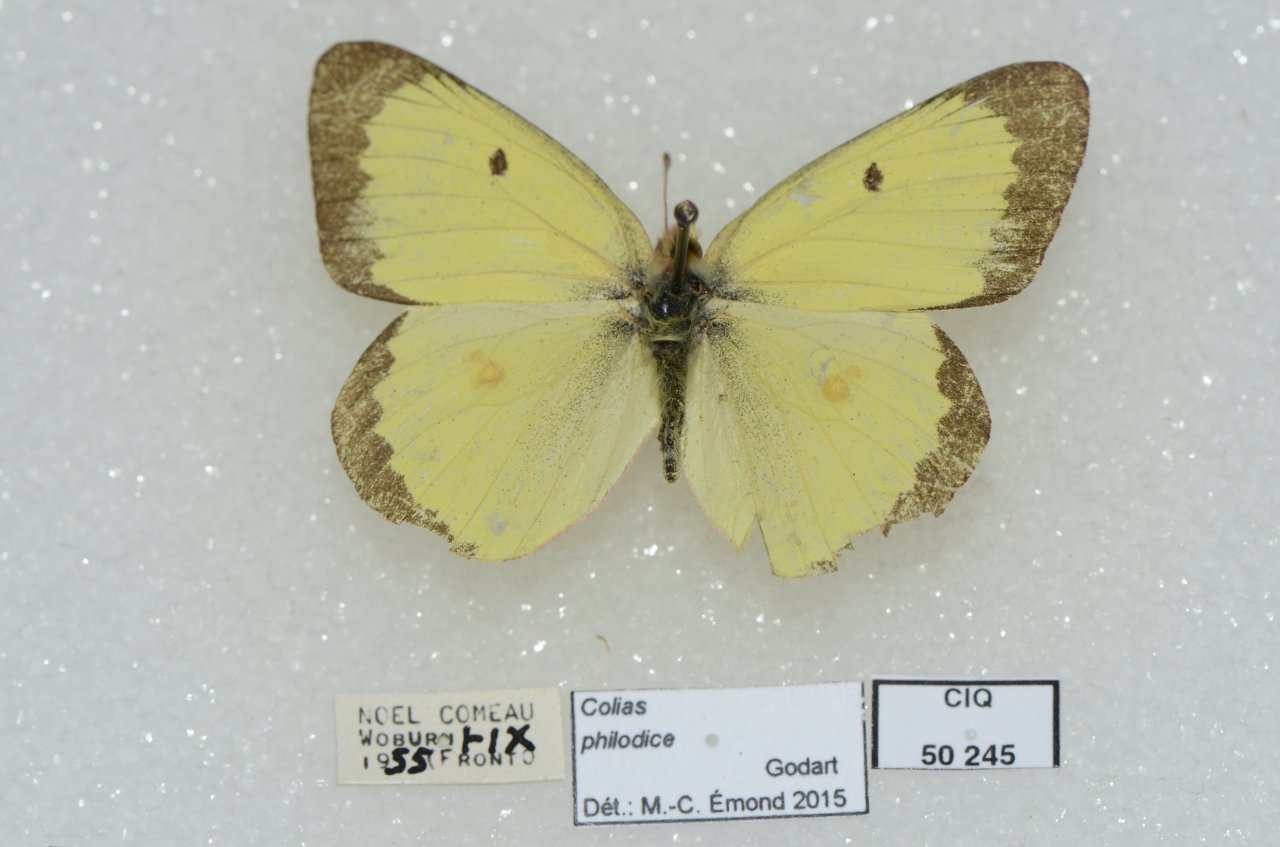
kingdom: Animalia
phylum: Arthropoda
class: Insecta
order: Lepidoptera
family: Pieridae
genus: Colias
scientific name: Colias philodice
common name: Clouded Sulphur
